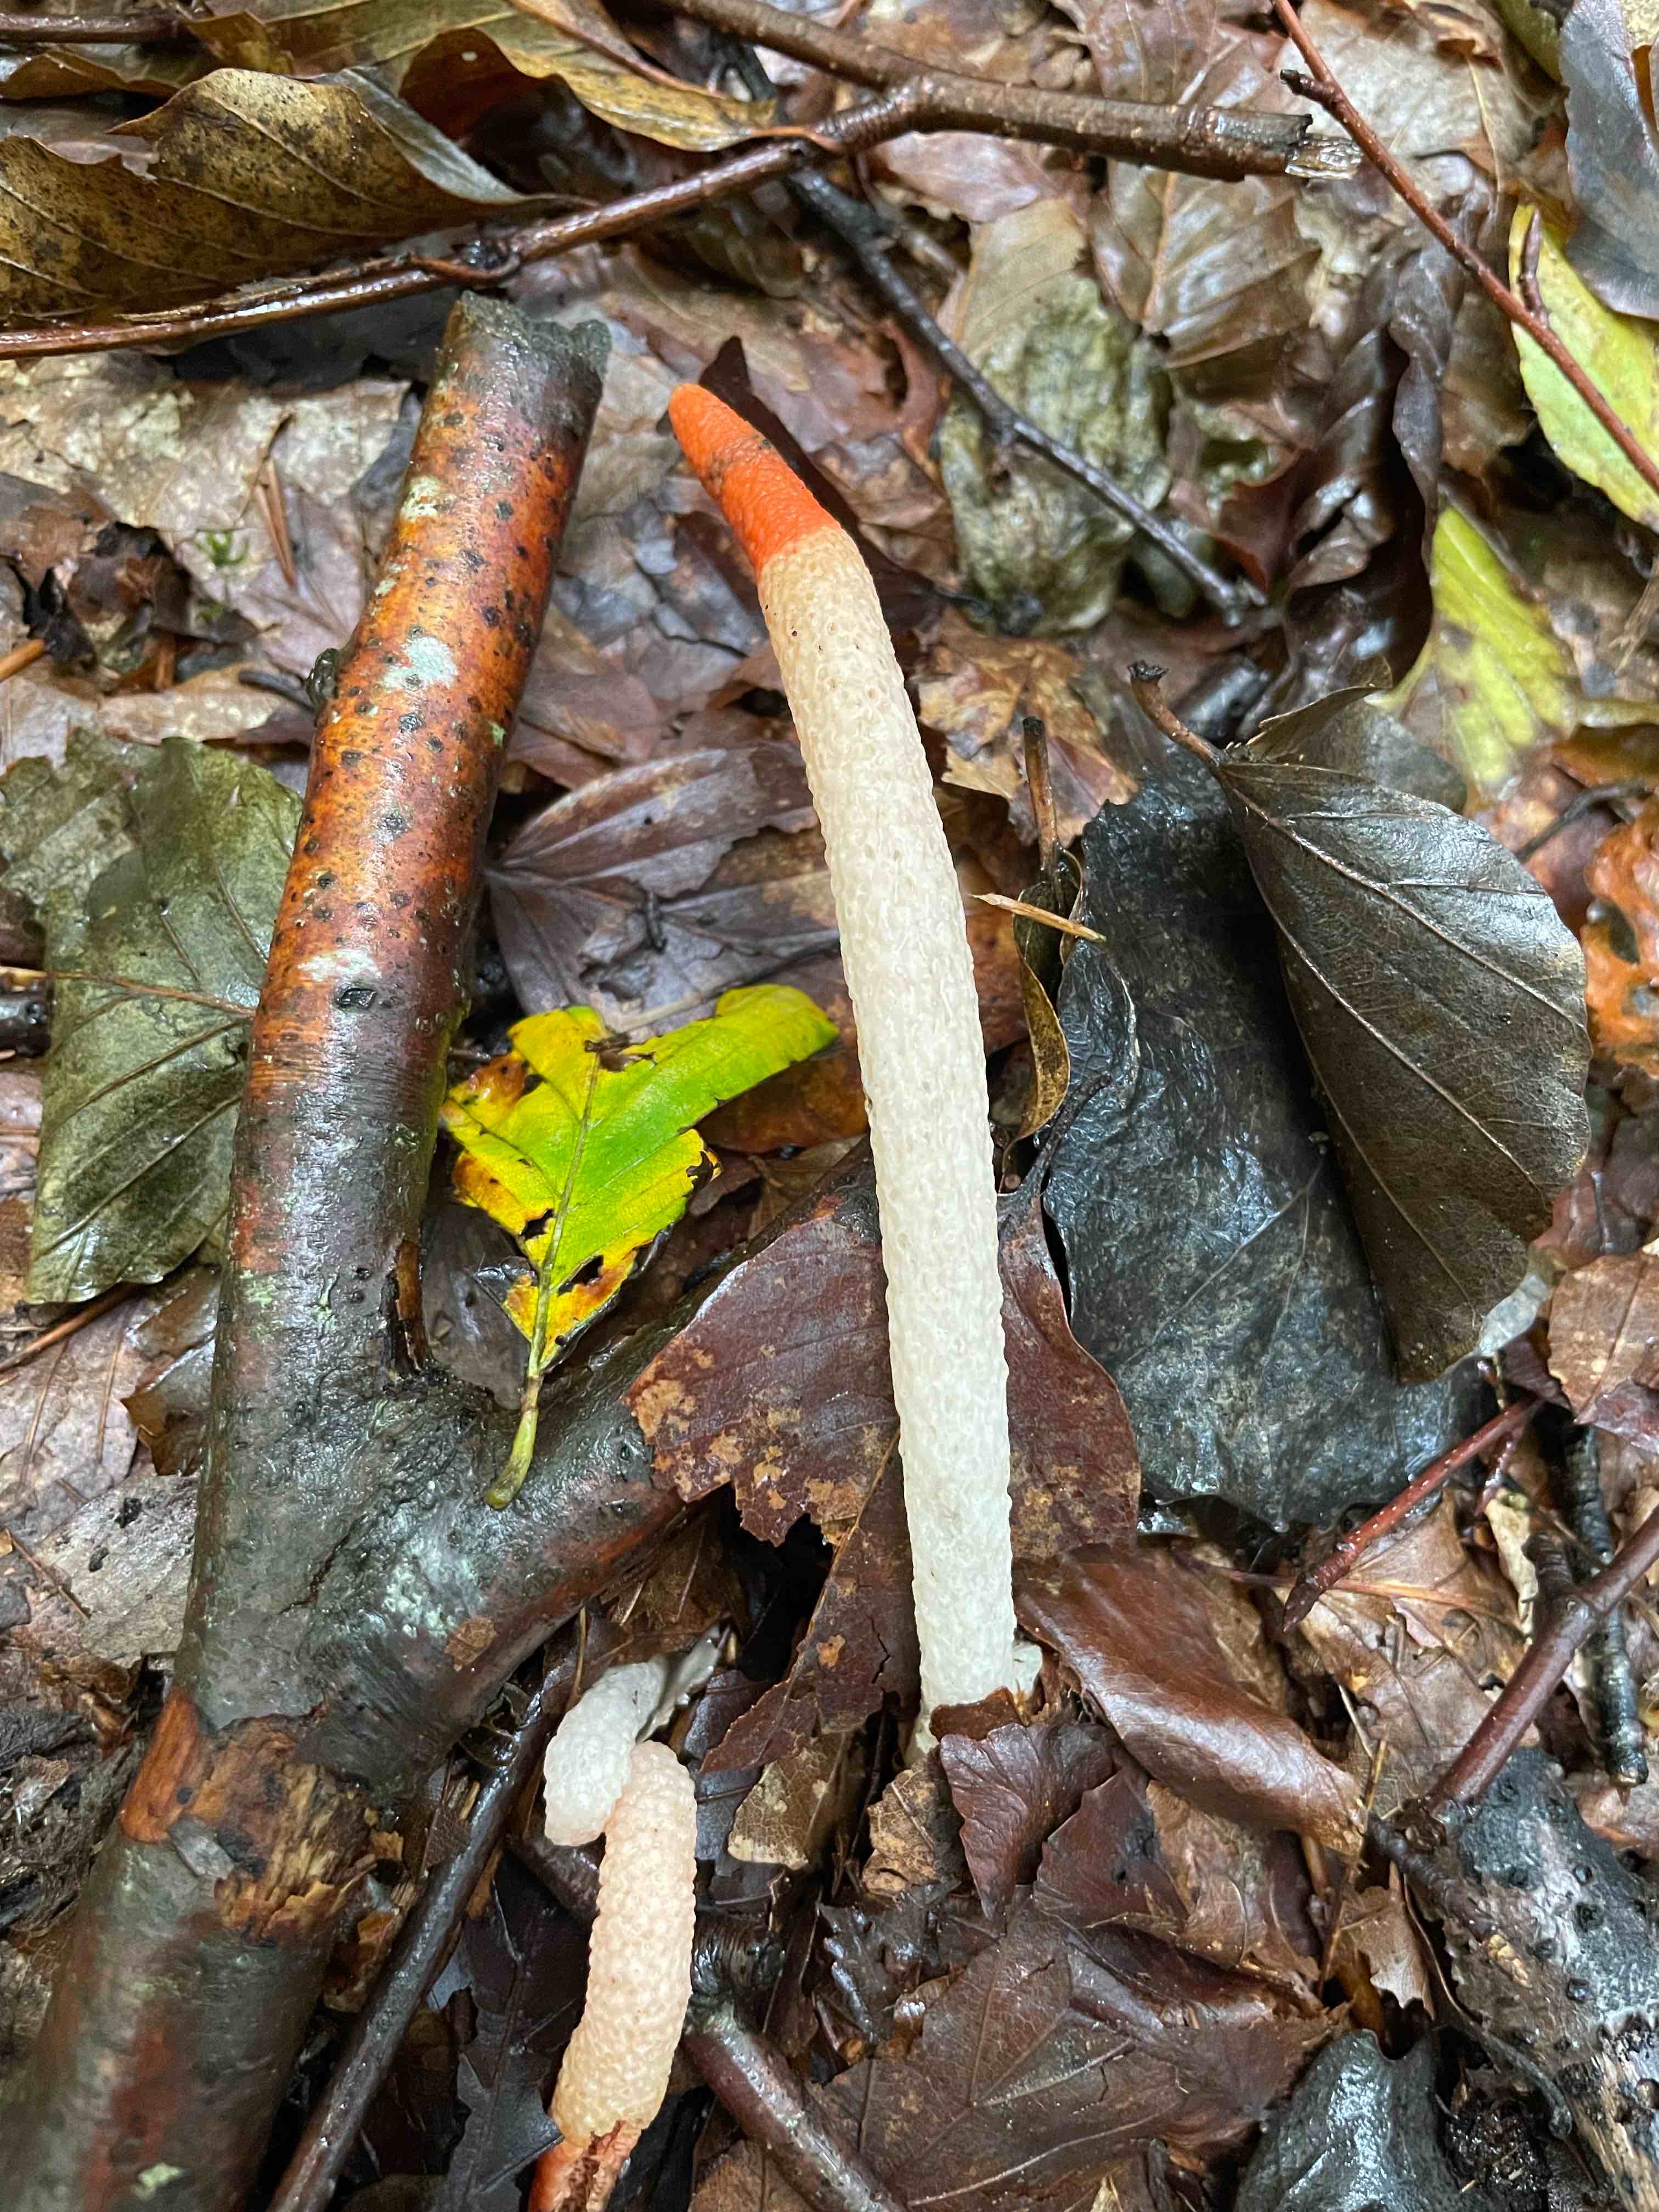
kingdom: Fungi
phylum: Basidiomycota
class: Agaricomycetes
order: Phallales
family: Phallaceae
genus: Mutinus
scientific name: Mutinus caninus
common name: hunde-stinksvamp
